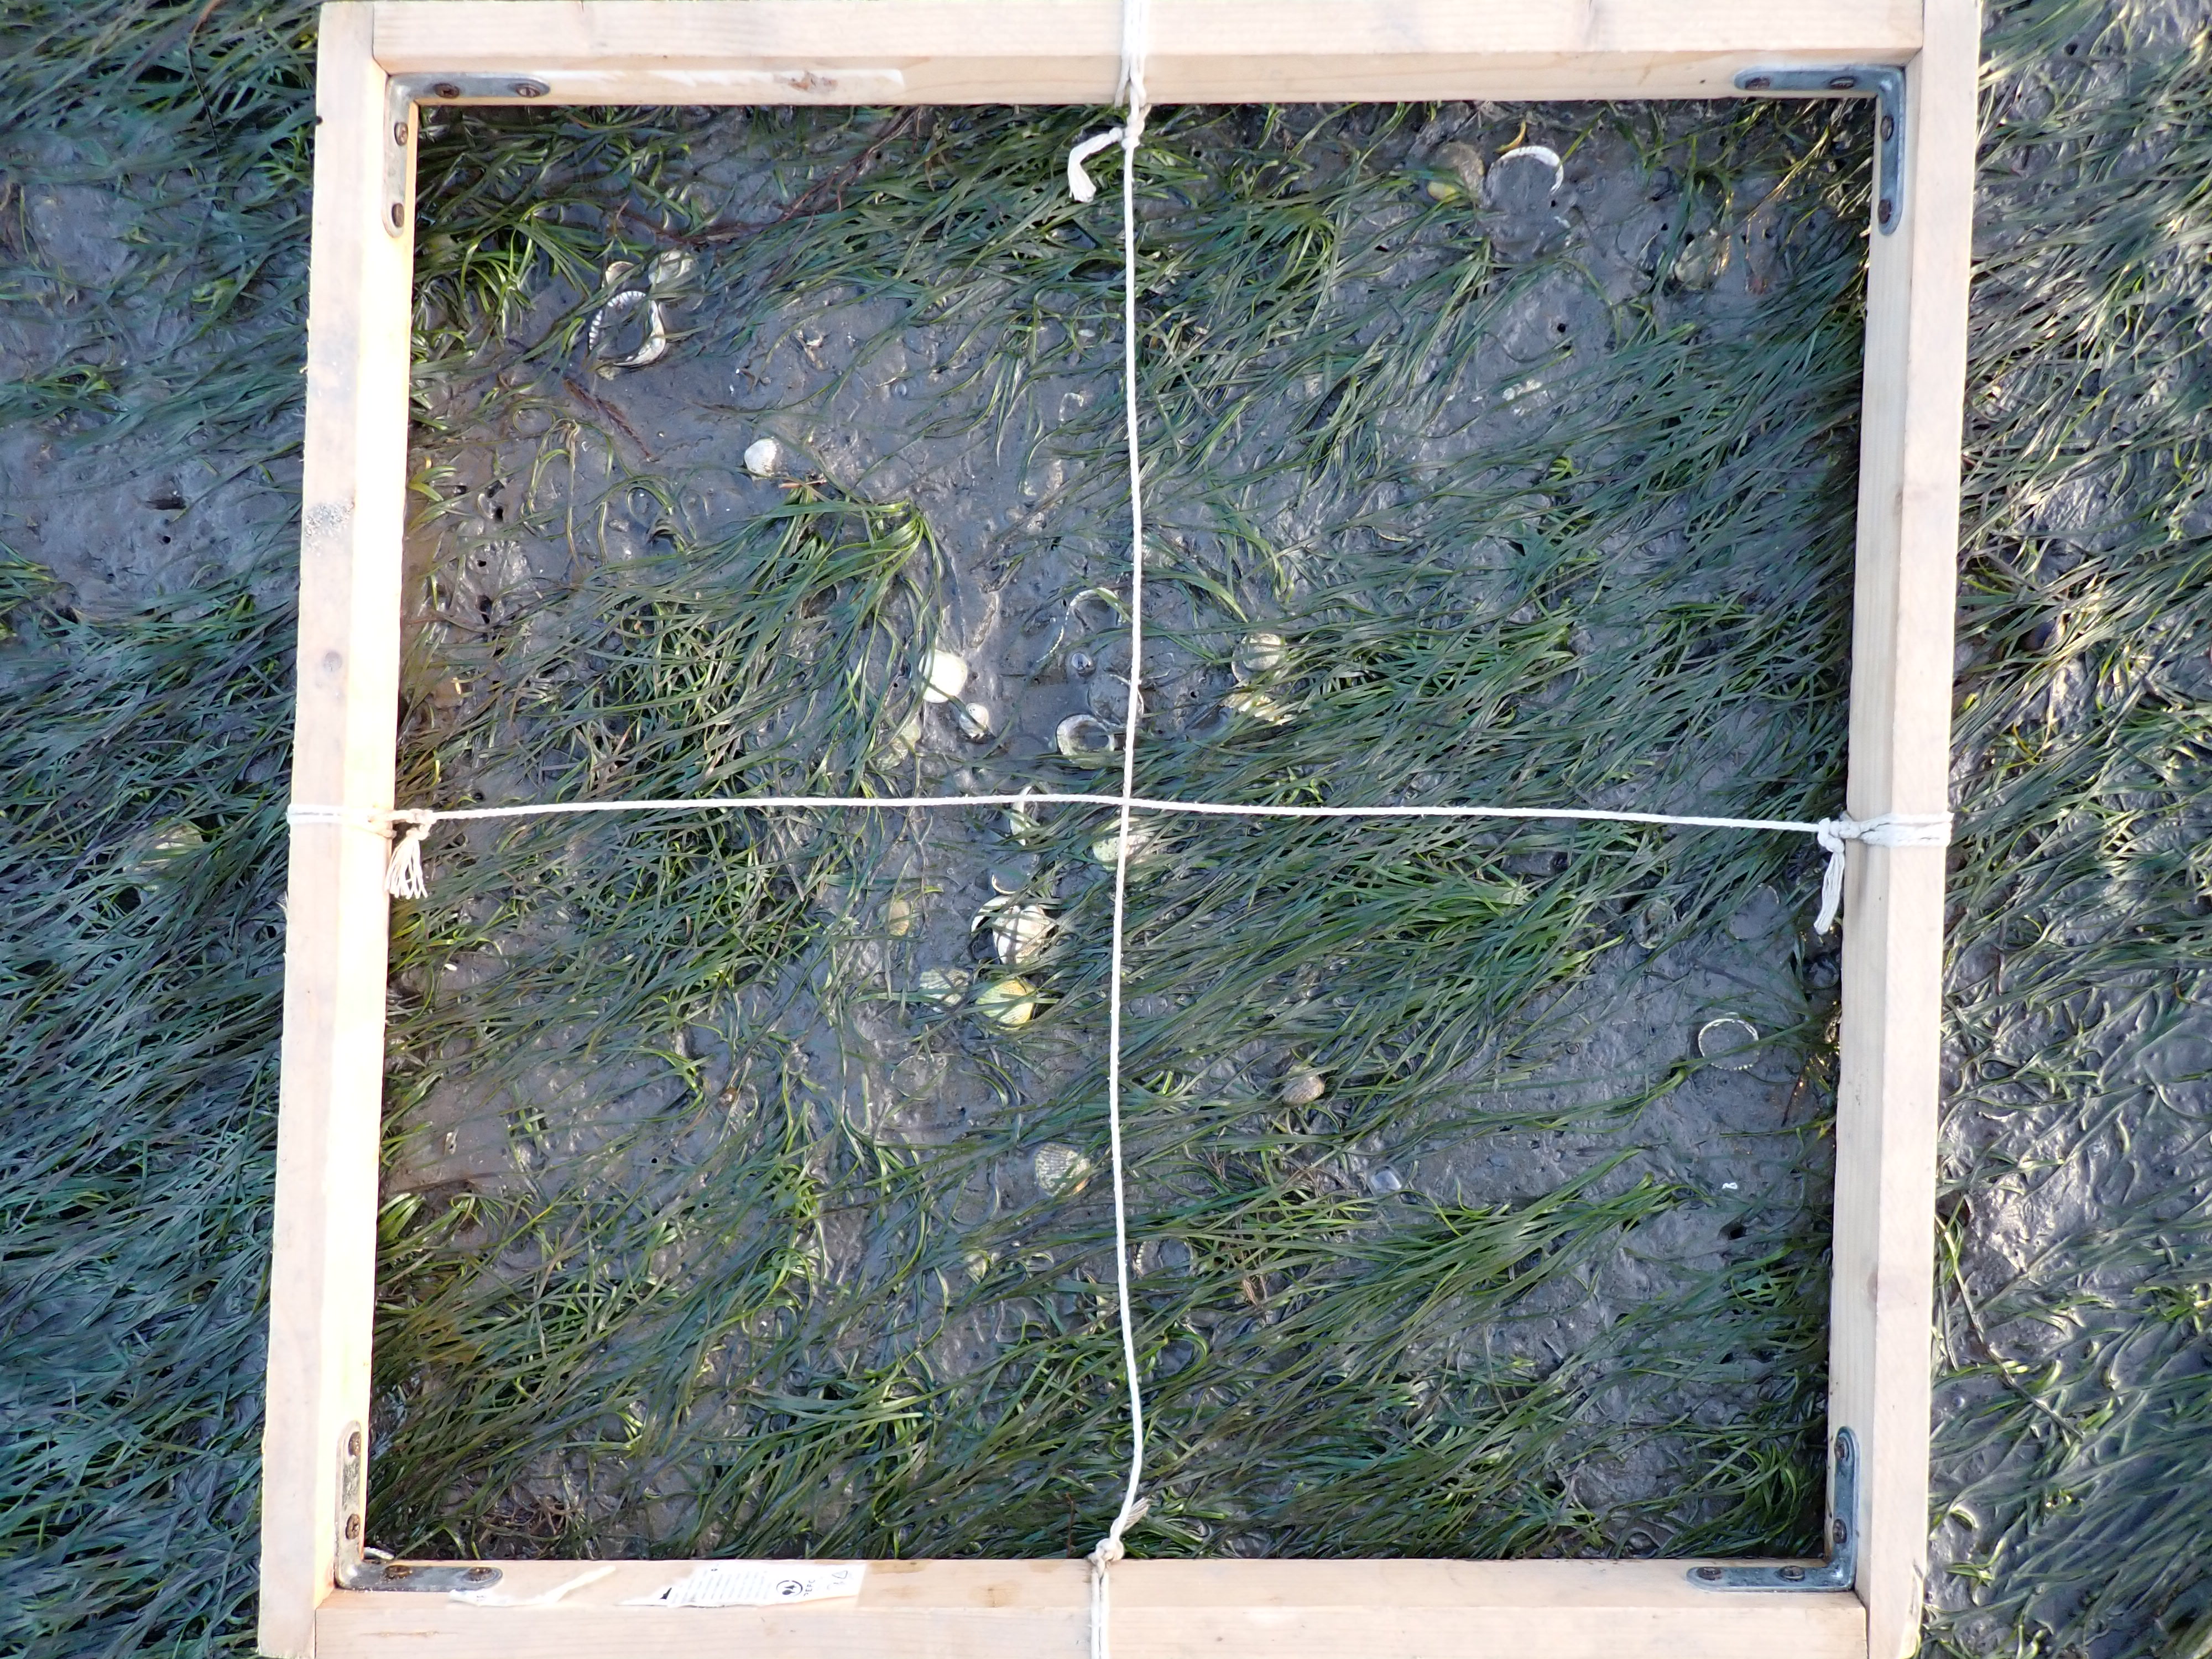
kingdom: Plantae
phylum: Tracheophyta
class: Liliopsida
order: Alismatales
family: Zosteraceae
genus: Zostera
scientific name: Zostera noltii
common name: Dwarf eelgrass
